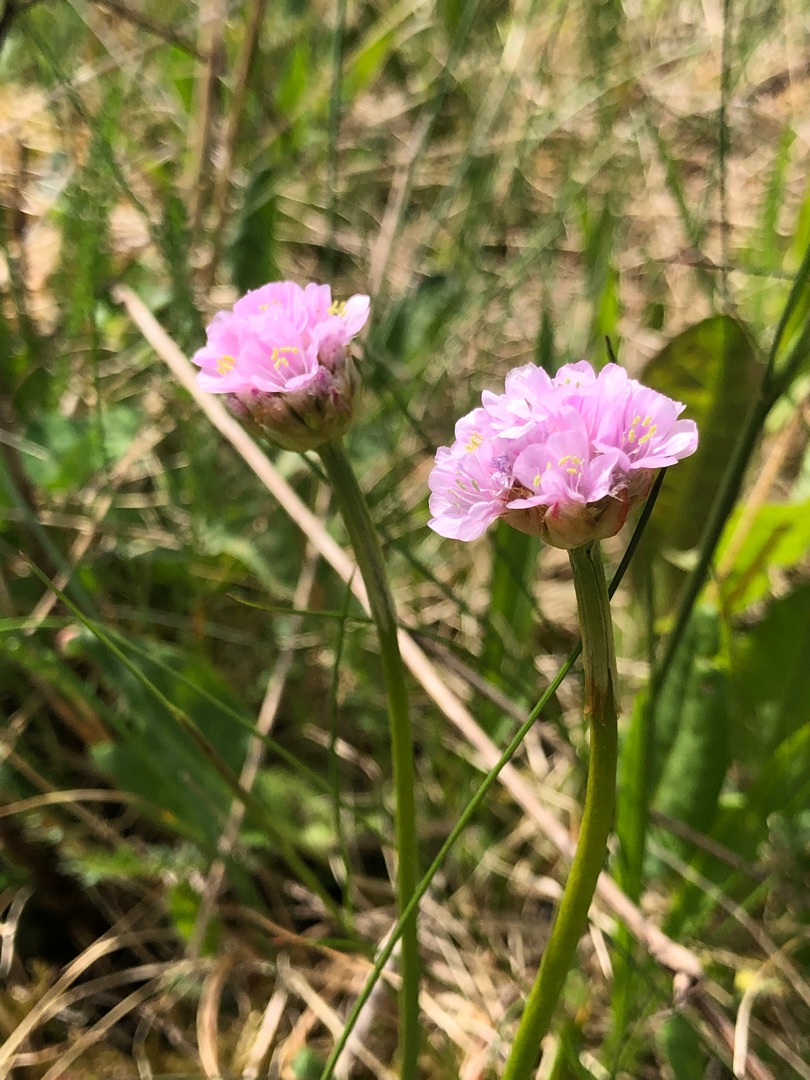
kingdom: Plantae
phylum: Tracheophyta
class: Magnoliopsida
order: Caryophyllales
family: Plumbaginaceae
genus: Armeria
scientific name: Armeria maritima
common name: Engelskgræs
